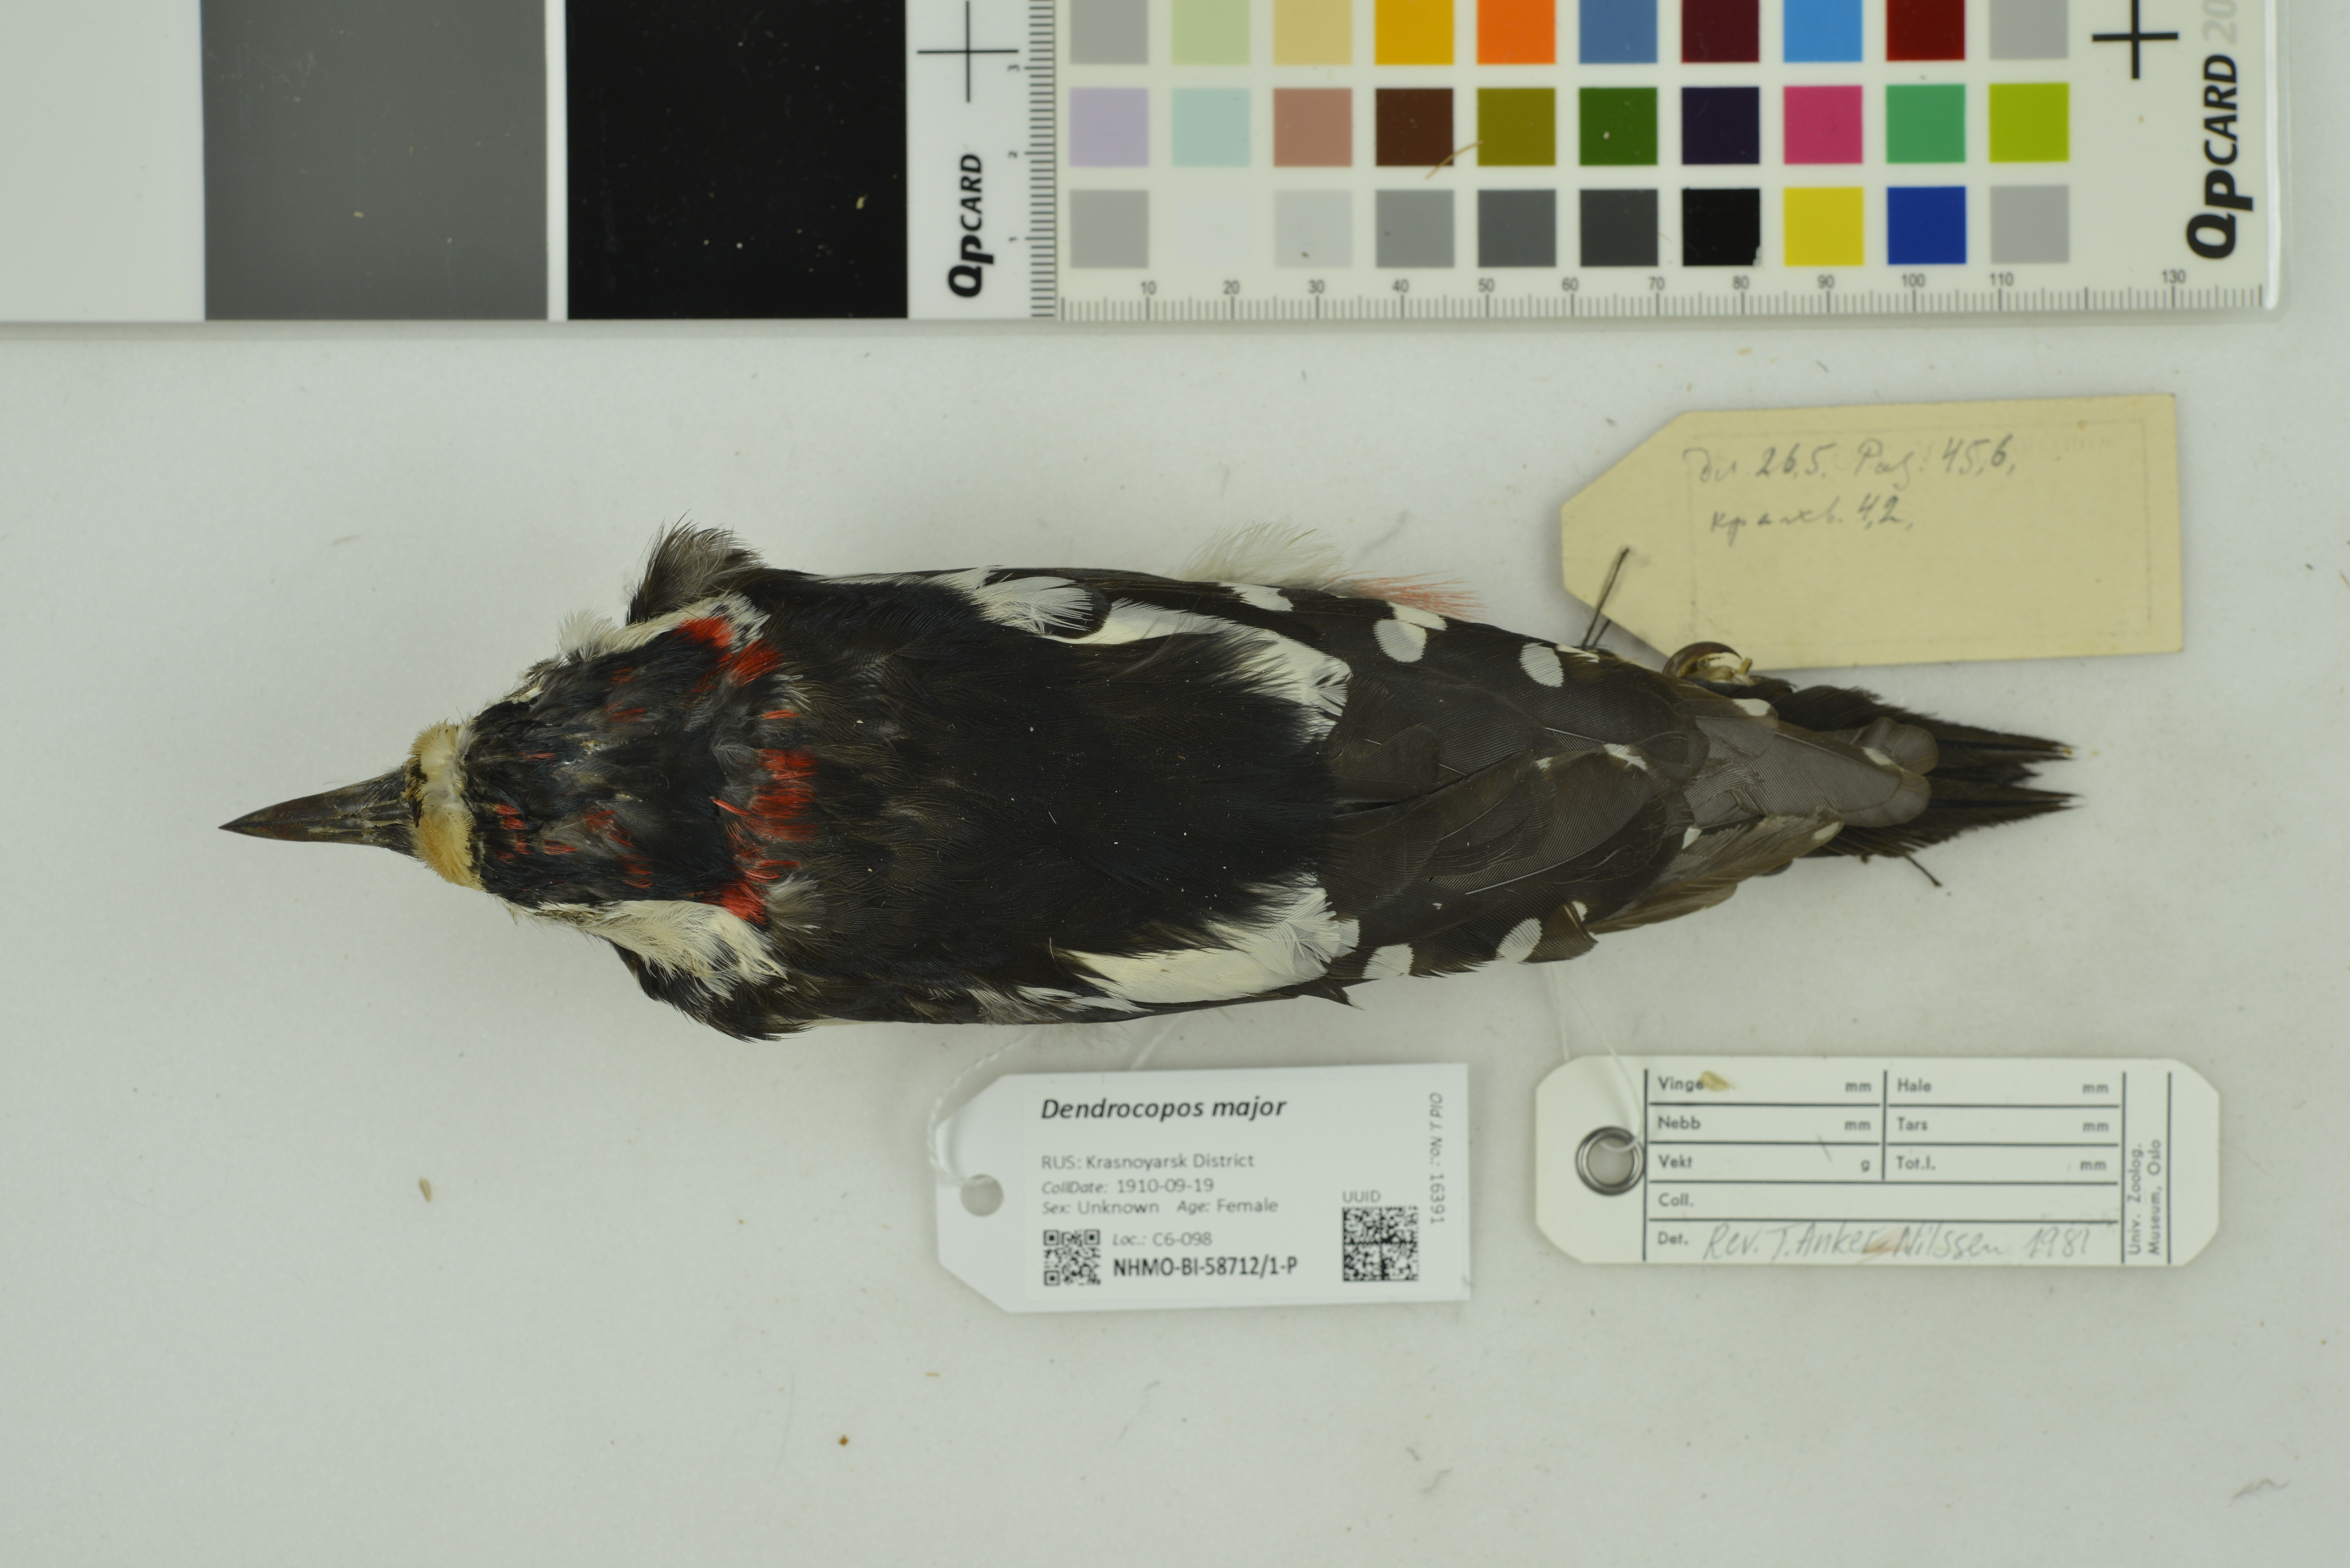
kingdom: Animalia
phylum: Chordata
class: Aves
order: Piciformes
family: Picidae
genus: Dendrocopos
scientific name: Dendrocopos major
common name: Great spotted woodpecker
